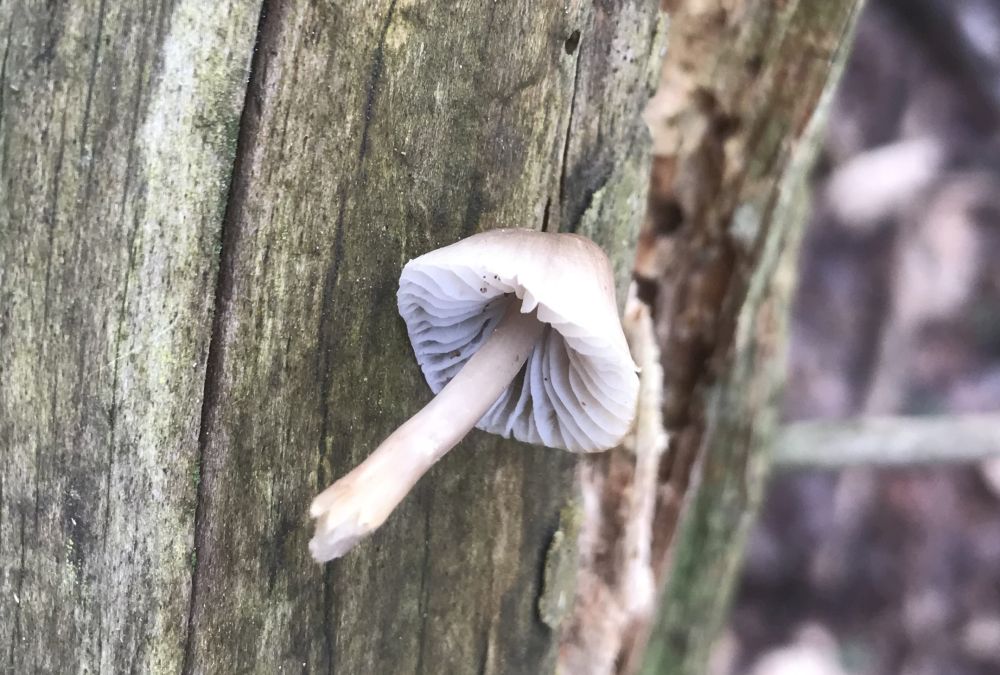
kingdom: Fungi
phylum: Basidiomycota
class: Agaricomycetes
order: Agaricales
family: Mycenaceae
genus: Mycena
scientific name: Mycena
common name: huesvamp
